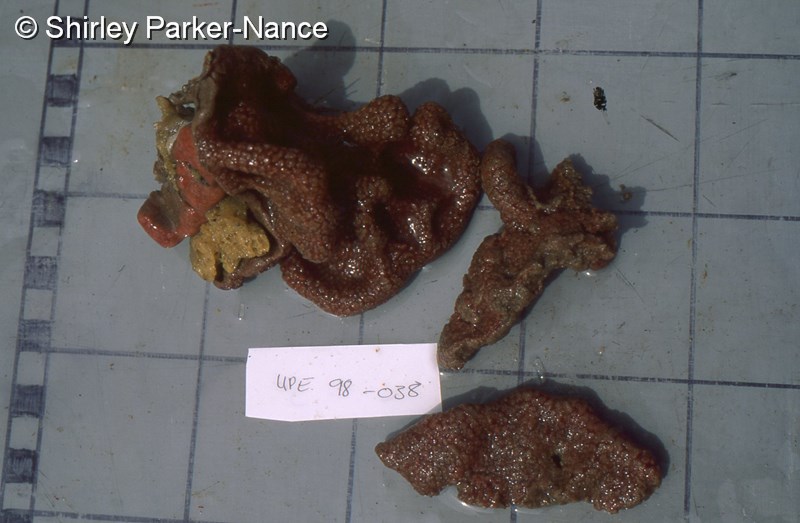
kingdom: Animalia
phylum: Chordata
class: Ascidiacea
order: Aplousobranchia
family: Polyclinidae
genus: Aplidium
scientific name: Aplidium
